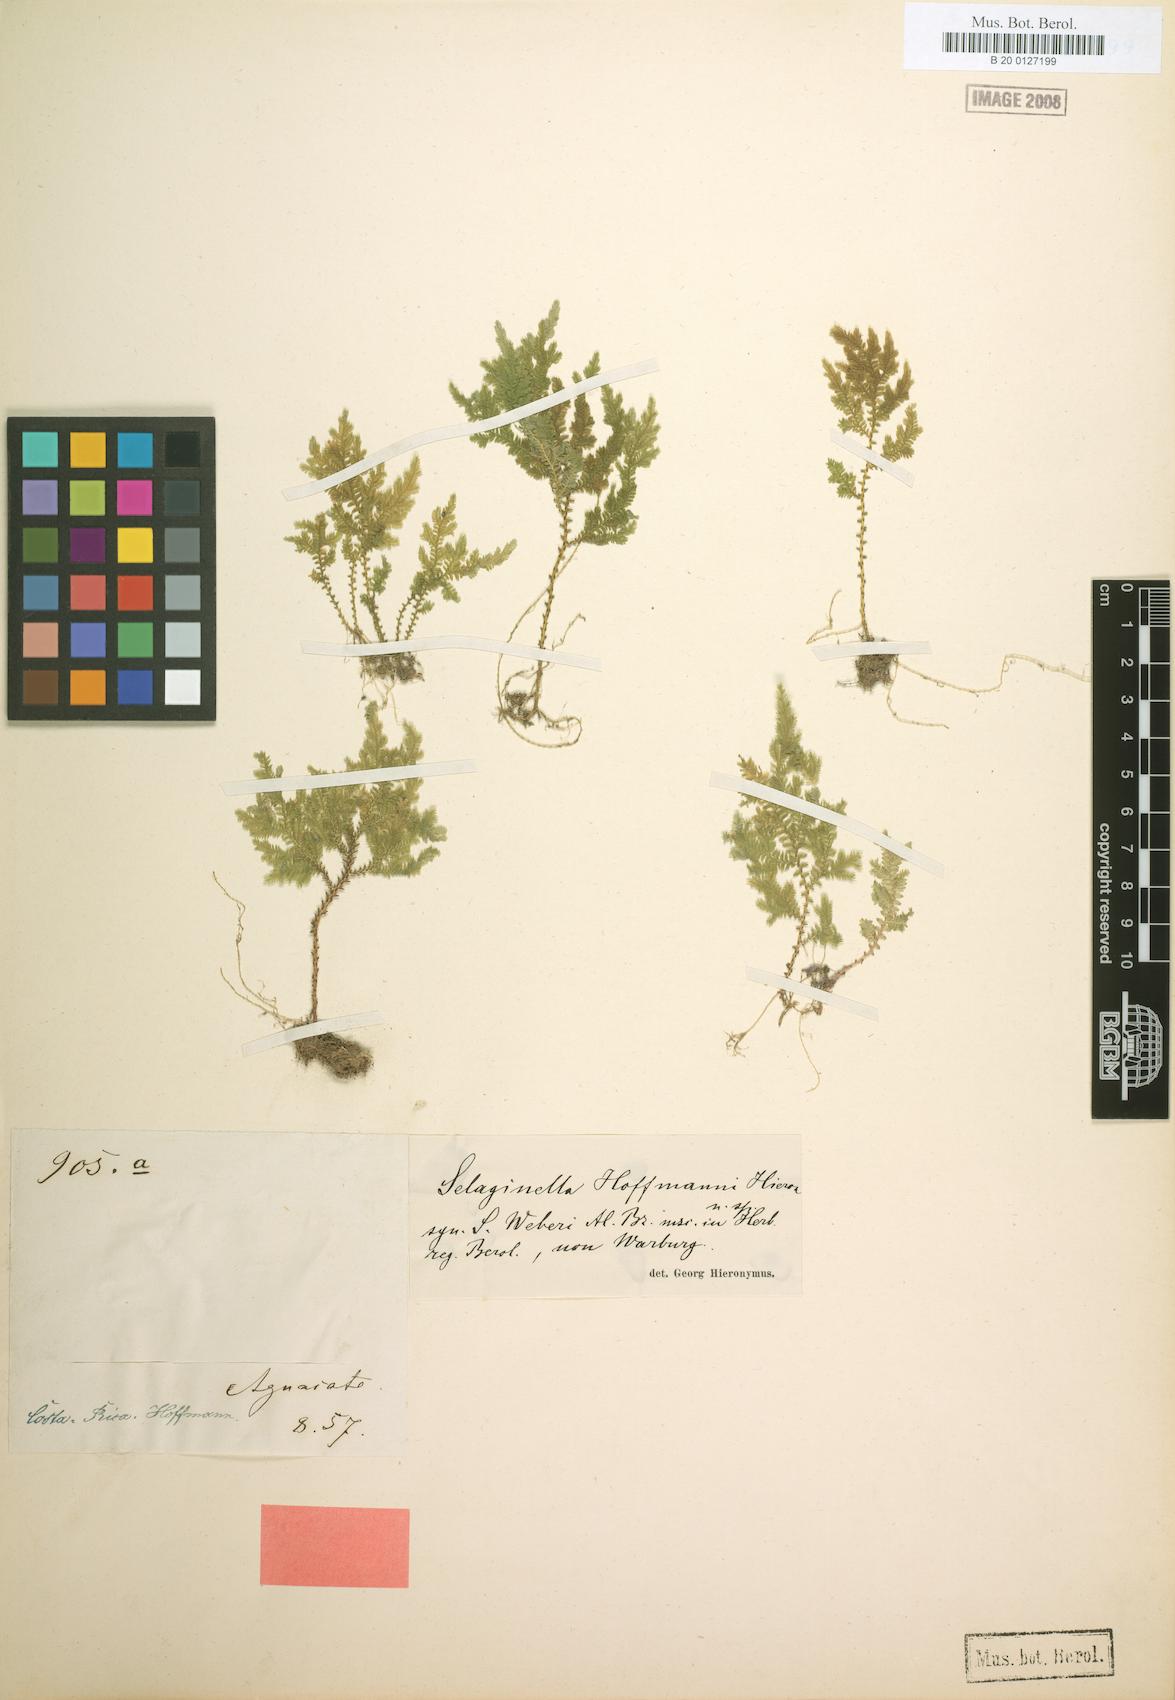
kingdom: Plantae
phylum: Tracheophyta
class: Lycopodiopsida
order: Selaginellales
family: Selaginellaceae
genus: Selaginella
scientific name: Selaginella hoffmannii
